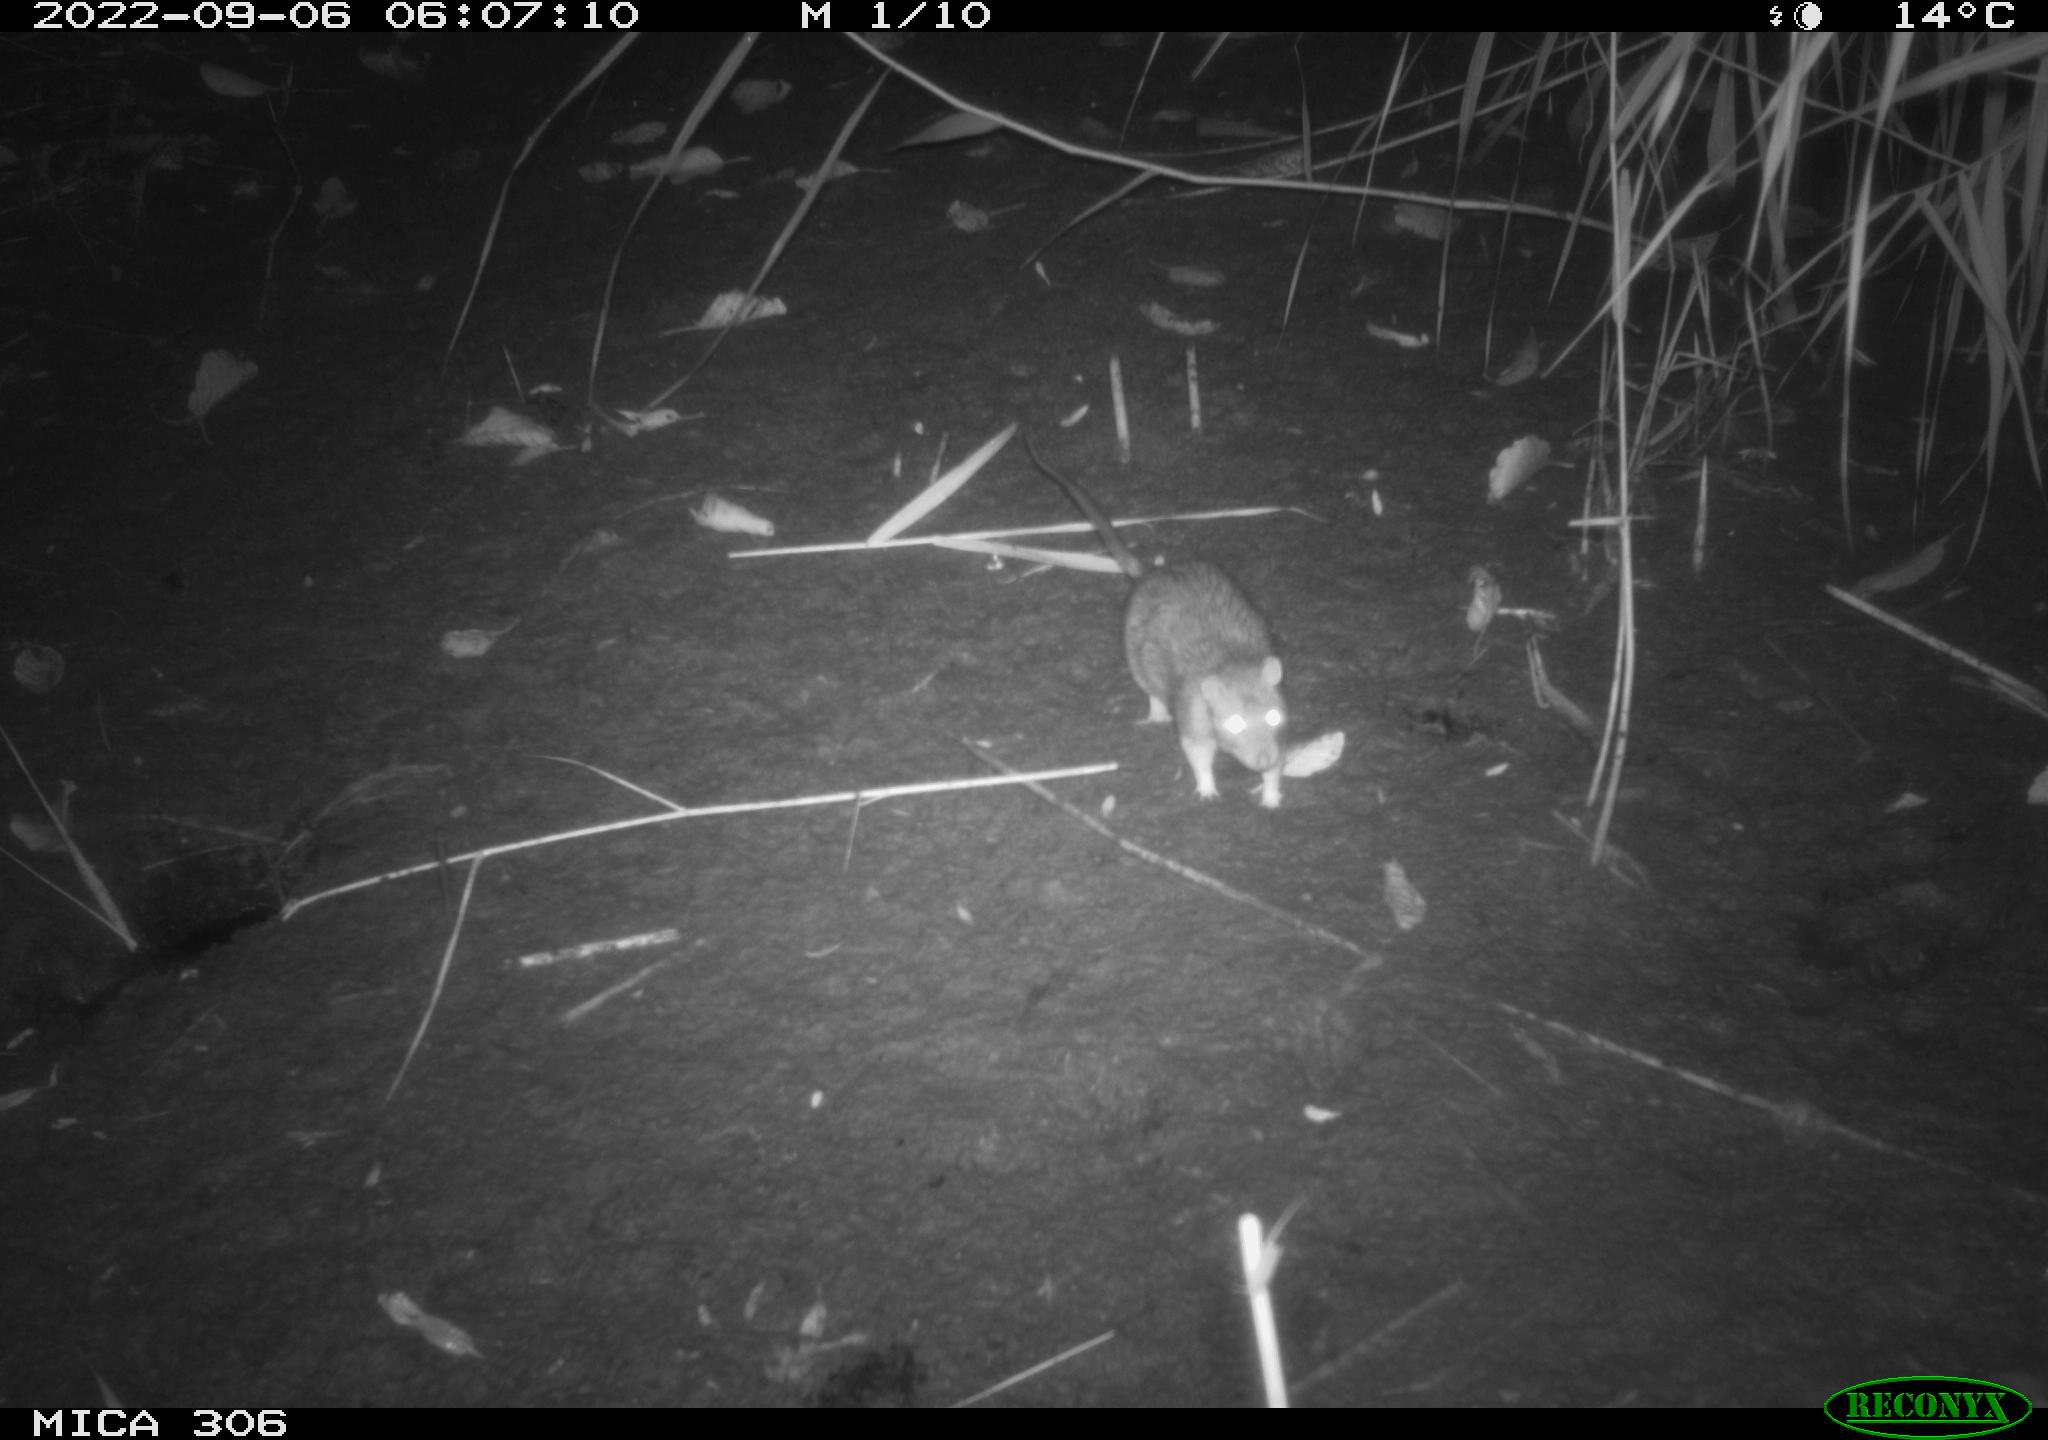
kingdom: Animalia
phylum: Chordata
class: Mammalia
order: Rodentia
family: Muridae
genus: Rattus
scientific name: Rattus norvegicus
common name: Brown rat
